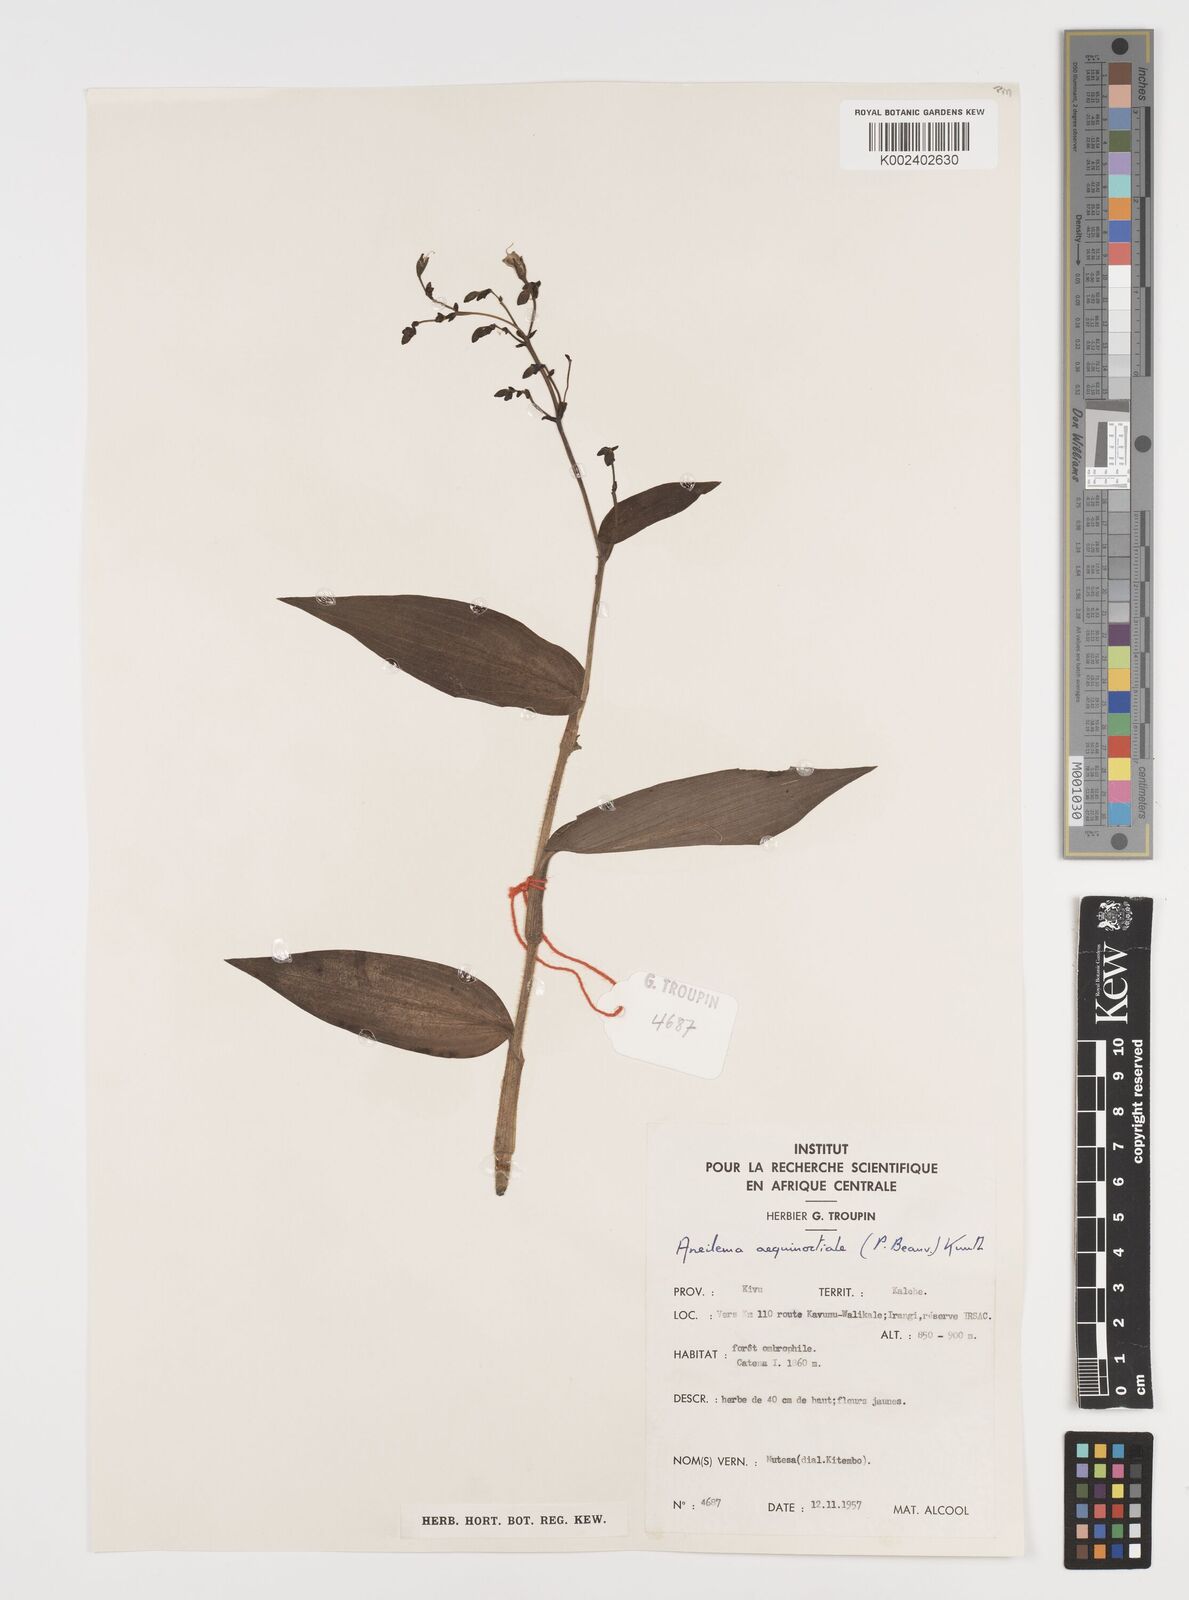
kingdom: Plantae
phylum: Tracheophyta
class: Liliopsida
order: Commelinales
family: Commelinaceae
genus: Aneilema
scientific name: Aneilema aequinoctiale
